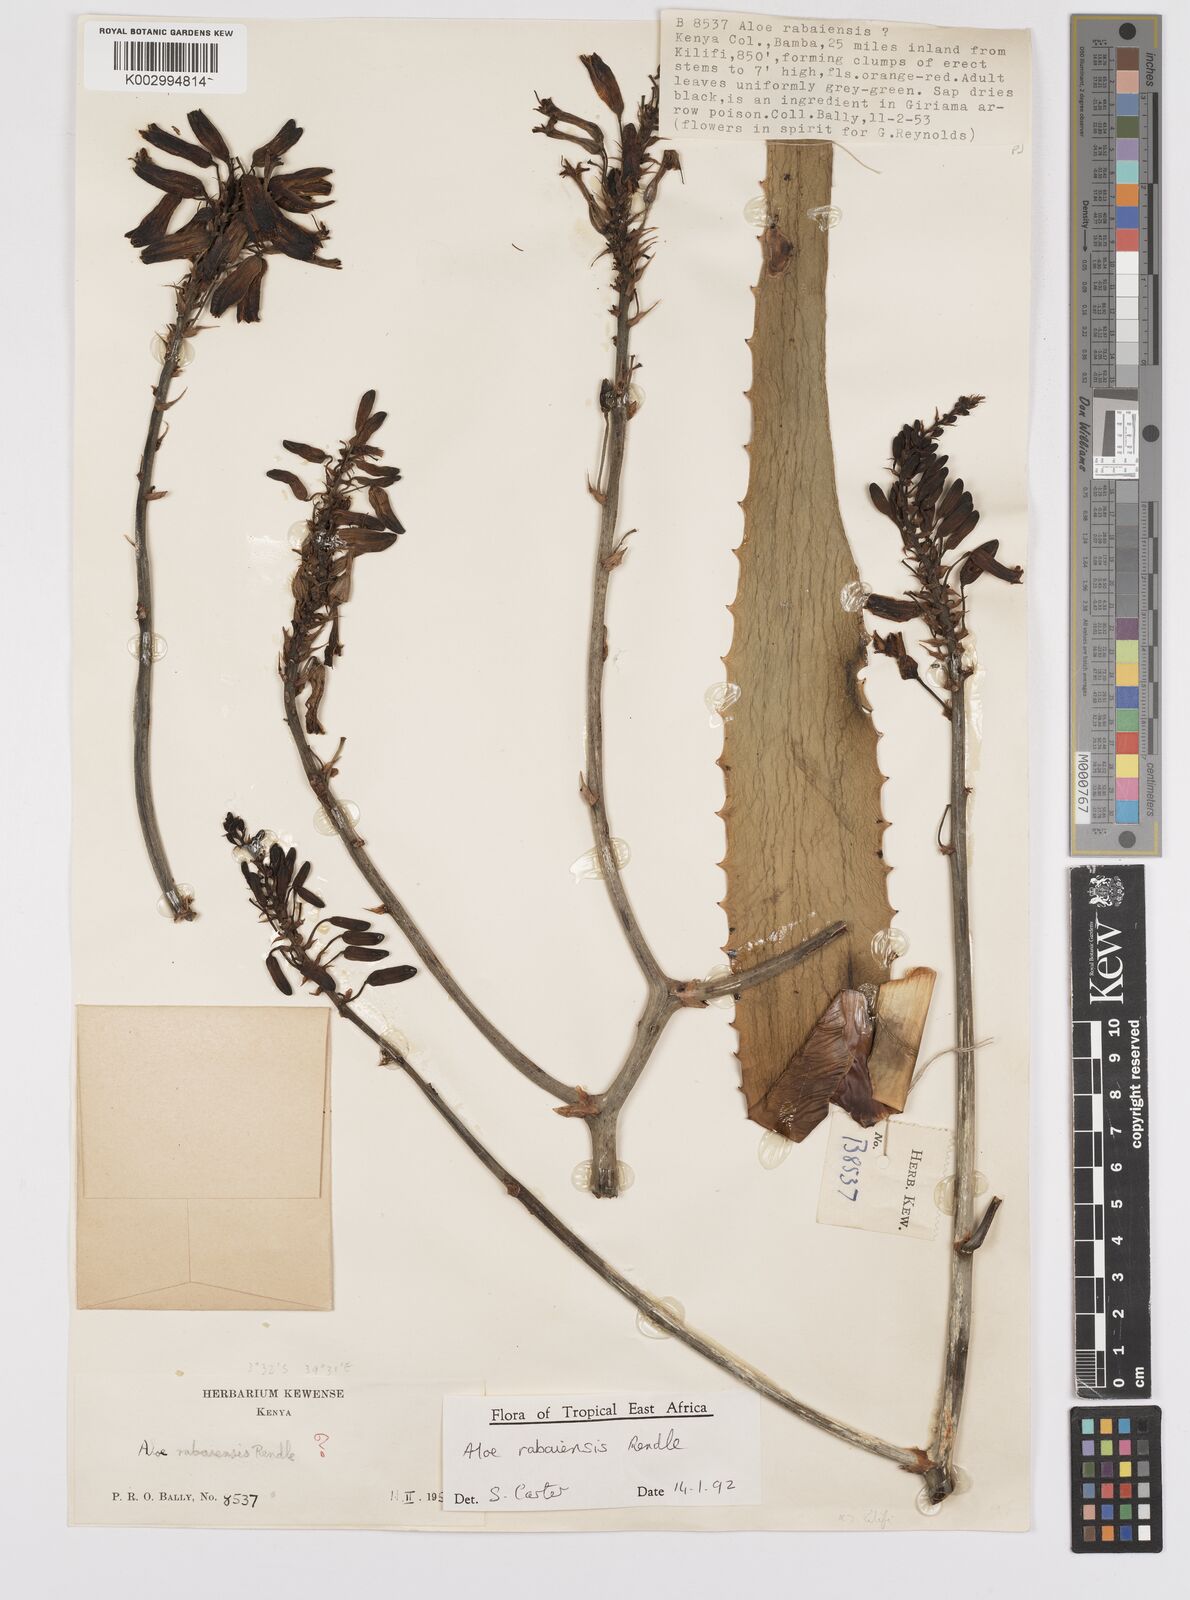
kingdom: Plantae
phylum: Tracheophyta
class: Liliopsida
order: Asparagales
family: Asphodelaceae
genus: Aloe
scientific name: Aloe rabaiensis
